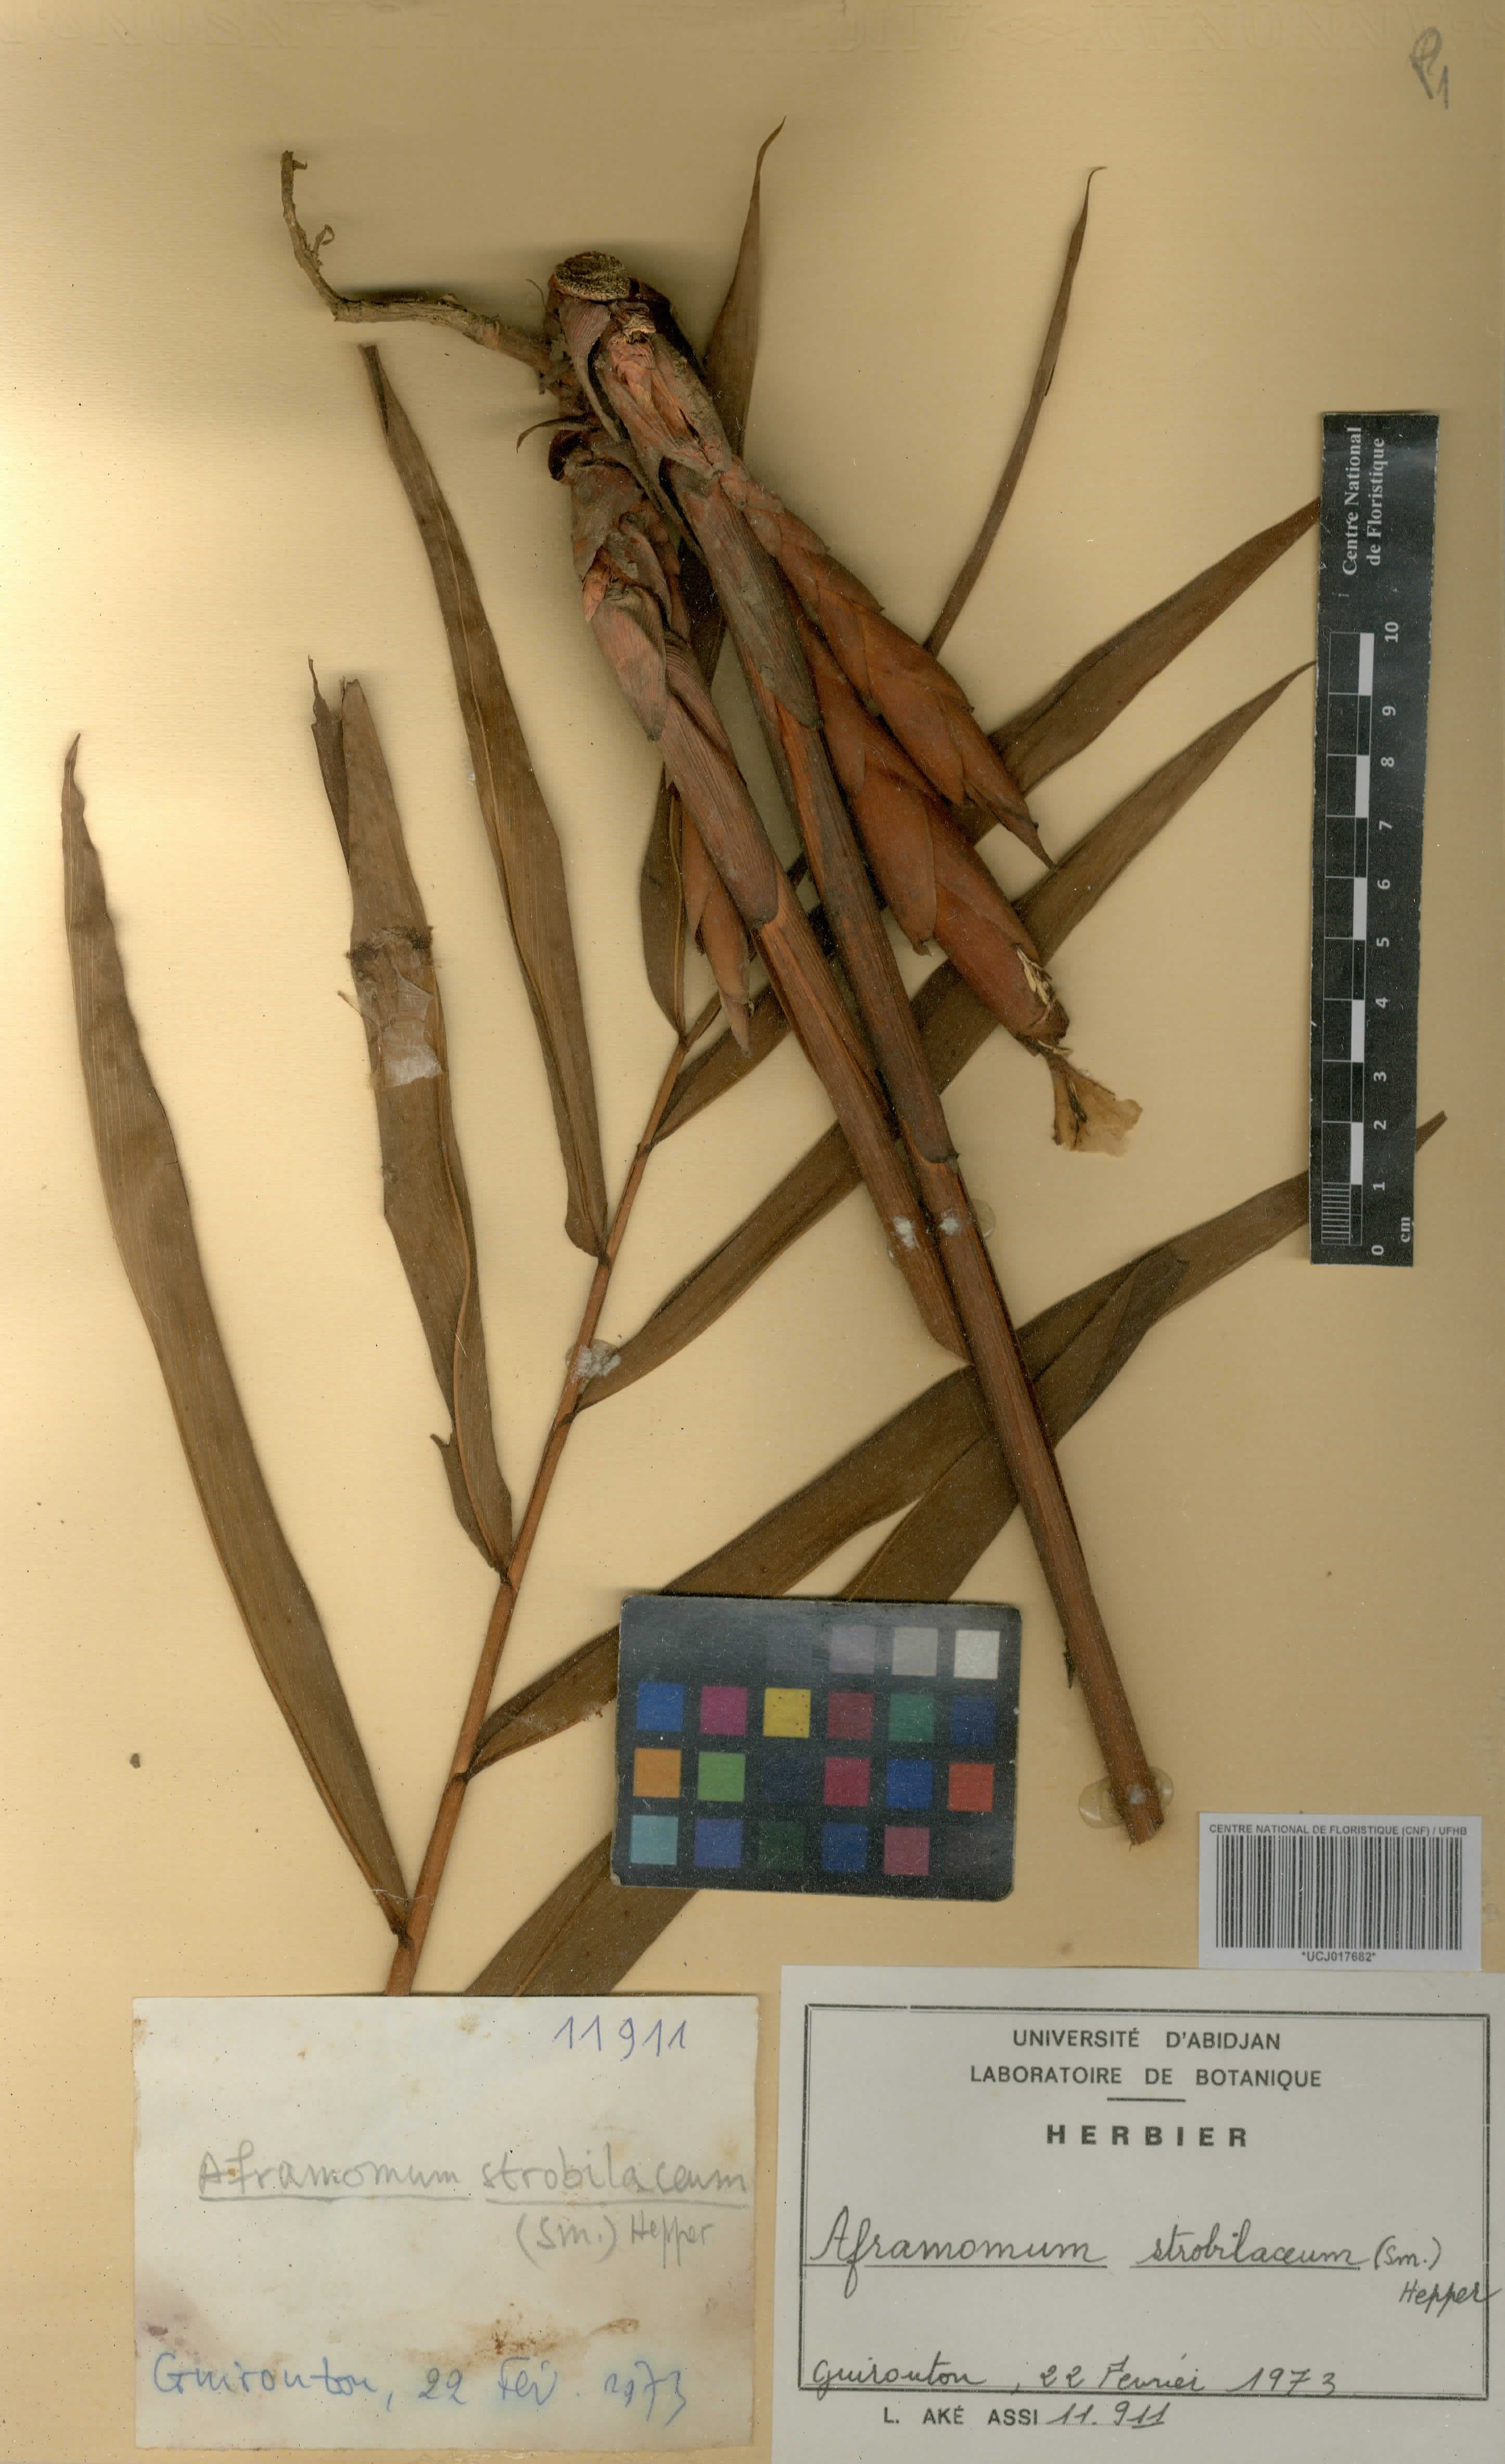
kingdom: Plantae
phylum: Tracheophyta
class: Liliopsida
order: Zingiberales
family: Zingiberaceae
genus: Aframomum
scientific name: Aframomum strobilaceum
